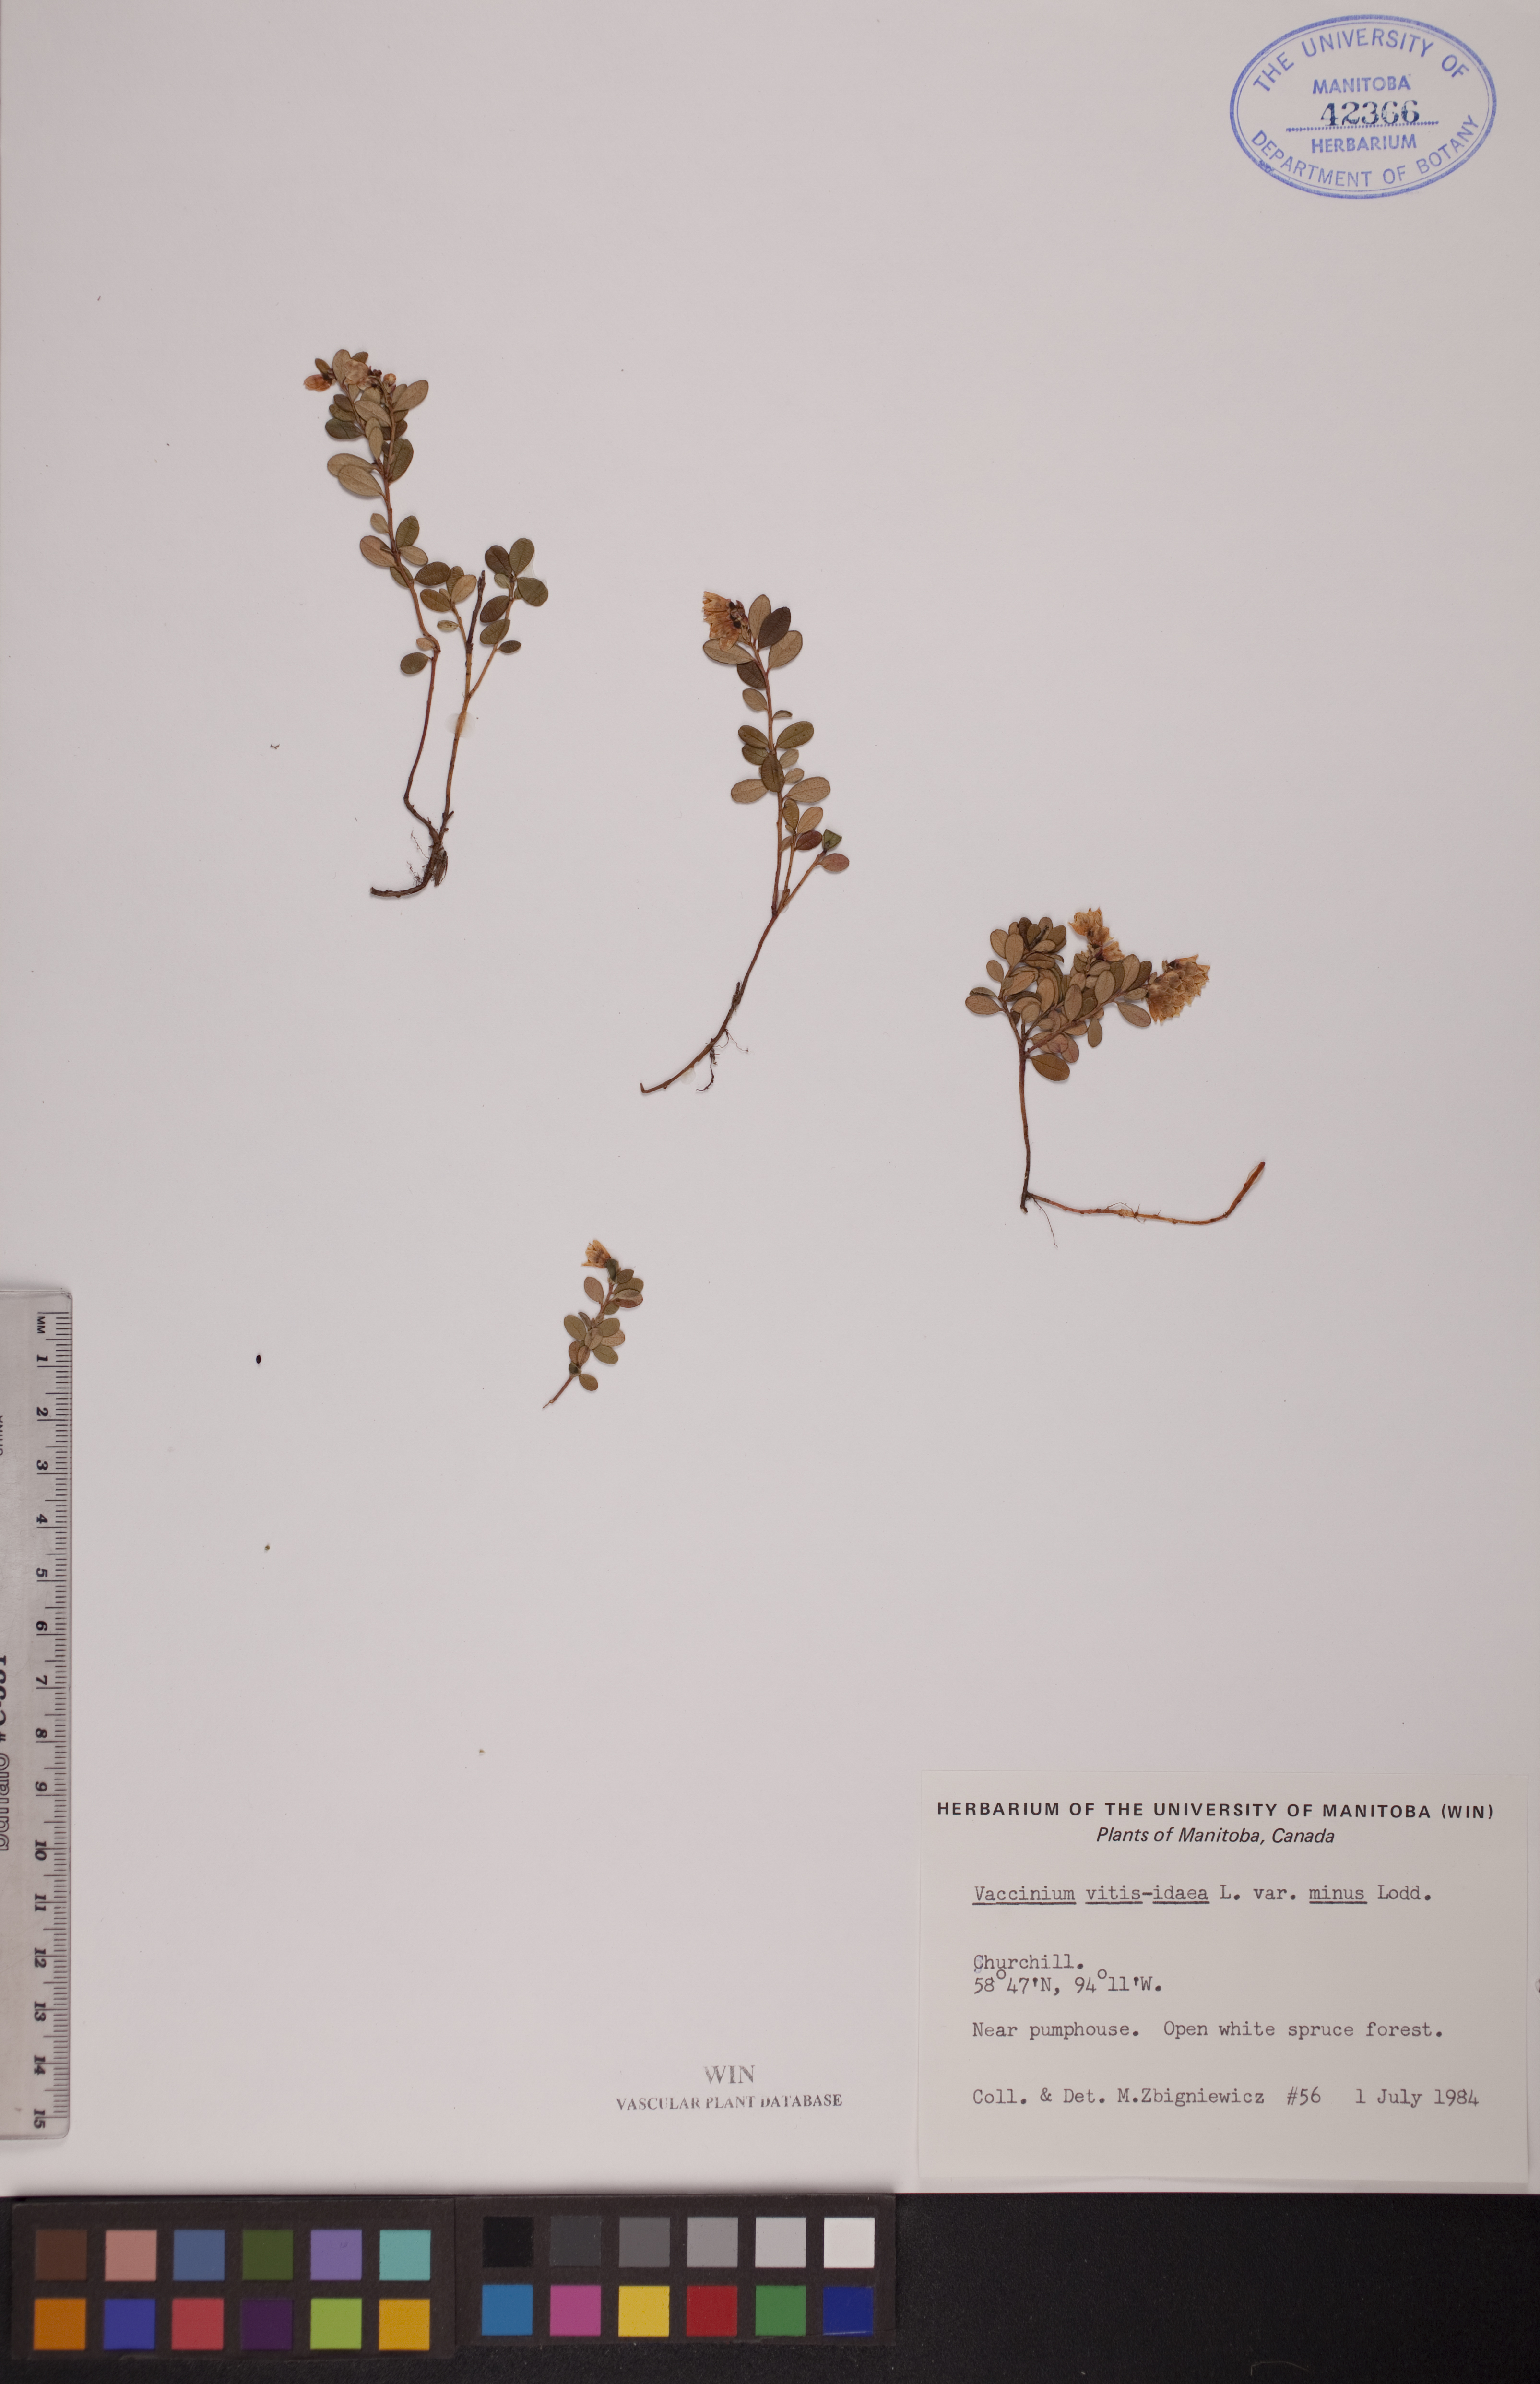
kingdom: Plantae
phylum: Tracheophyta
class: Magnoliopsida
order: Ericales
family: Ericaceae
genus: Vaccinium
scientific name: Vaccinium vitis-idaea
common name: Cowberry
